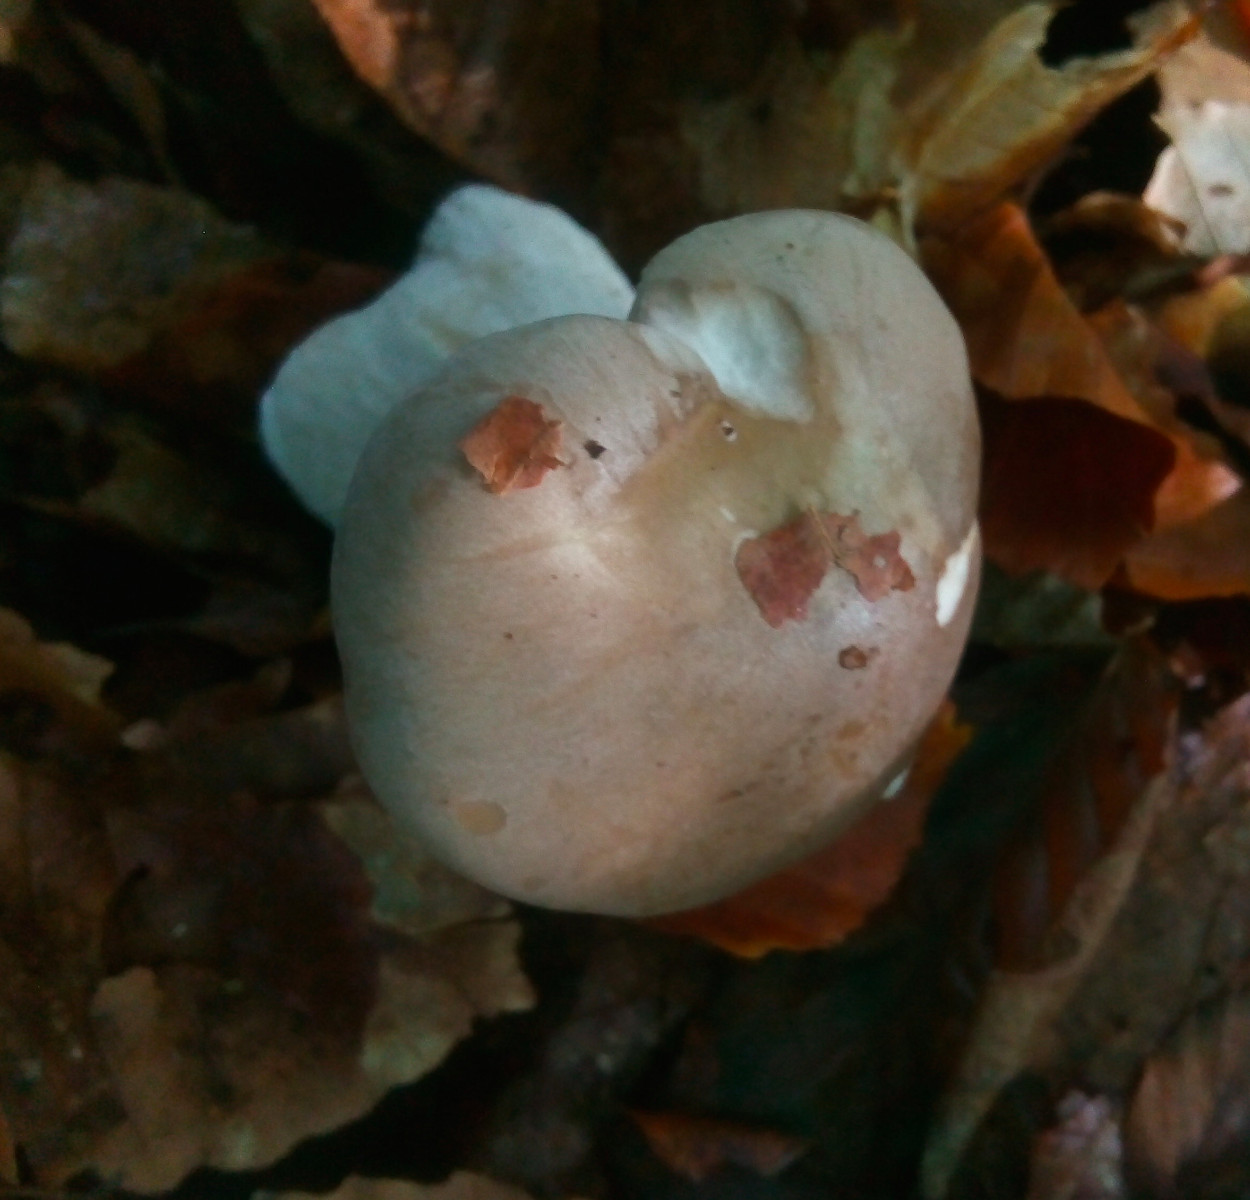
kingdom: Fungi
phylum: Basidiomycota
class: Agaricomycetes
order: Agaricales
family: Tricholomataceae
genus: Clitocybe
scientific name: Clitocybe nebularis
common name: tåge-tragthat
